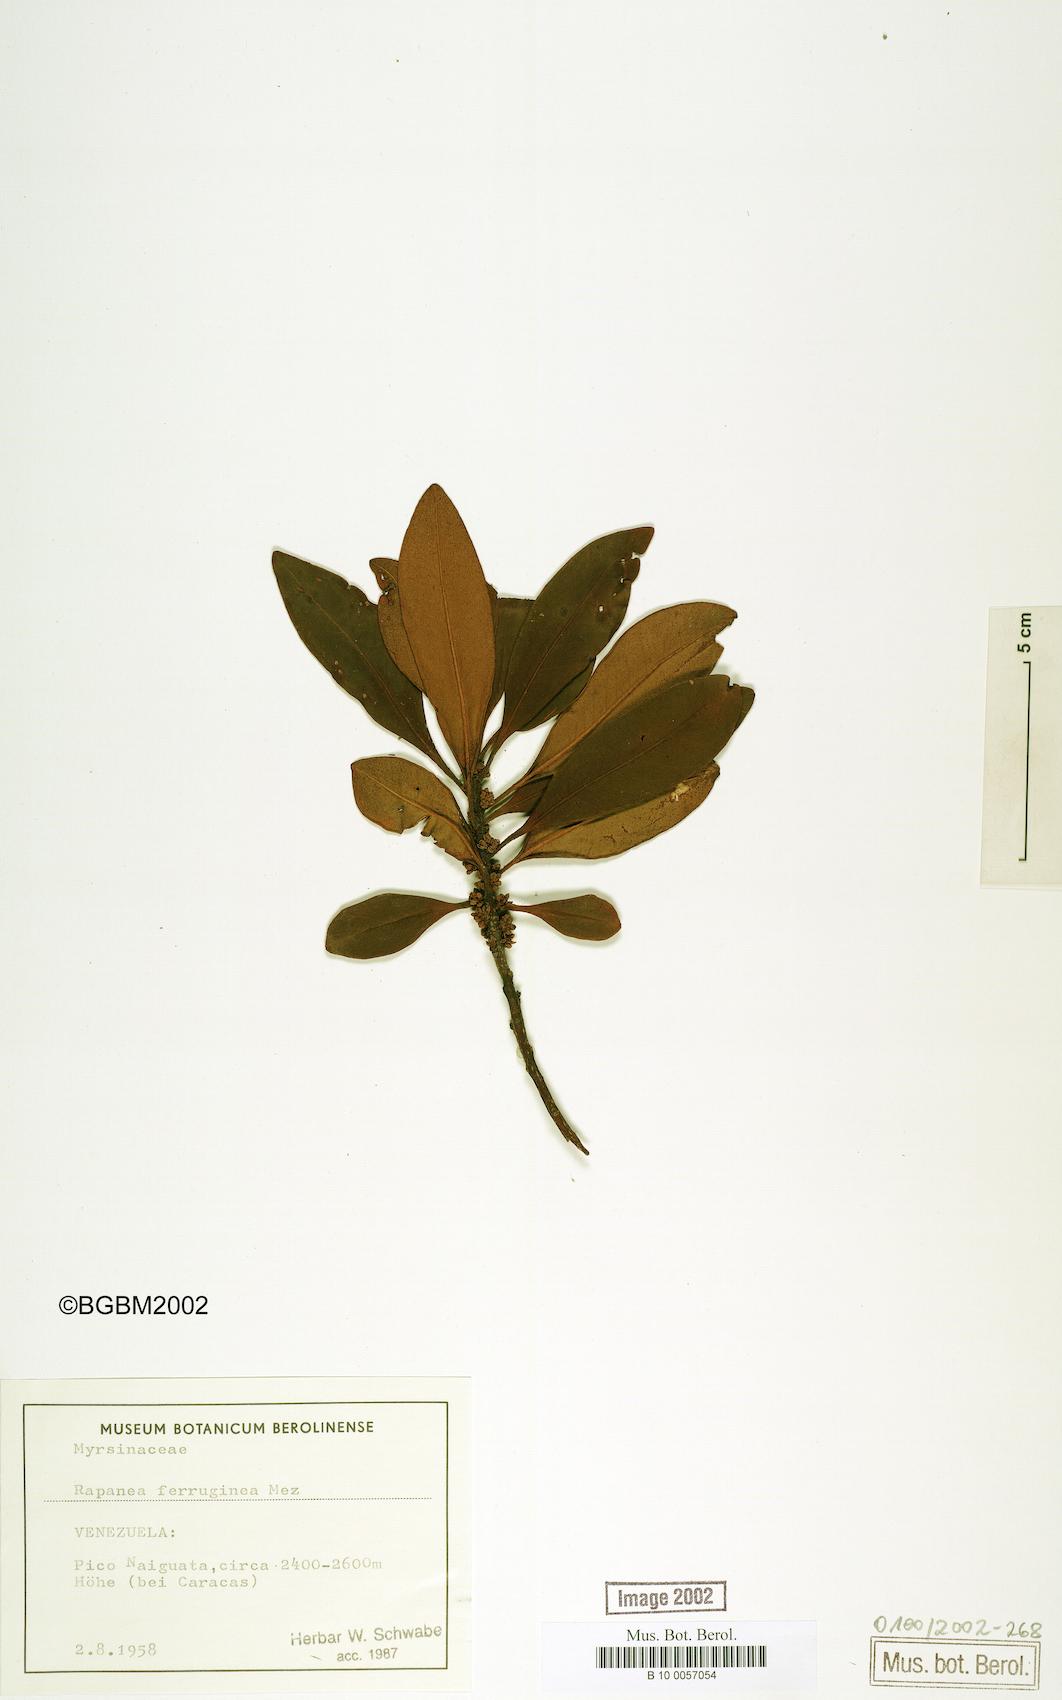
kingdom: Plantae
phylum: Tracheophyta
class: Magnoliopsida
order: Ericales
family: Primulaceae
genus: Myrsine
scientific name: Myrsine coriacea
